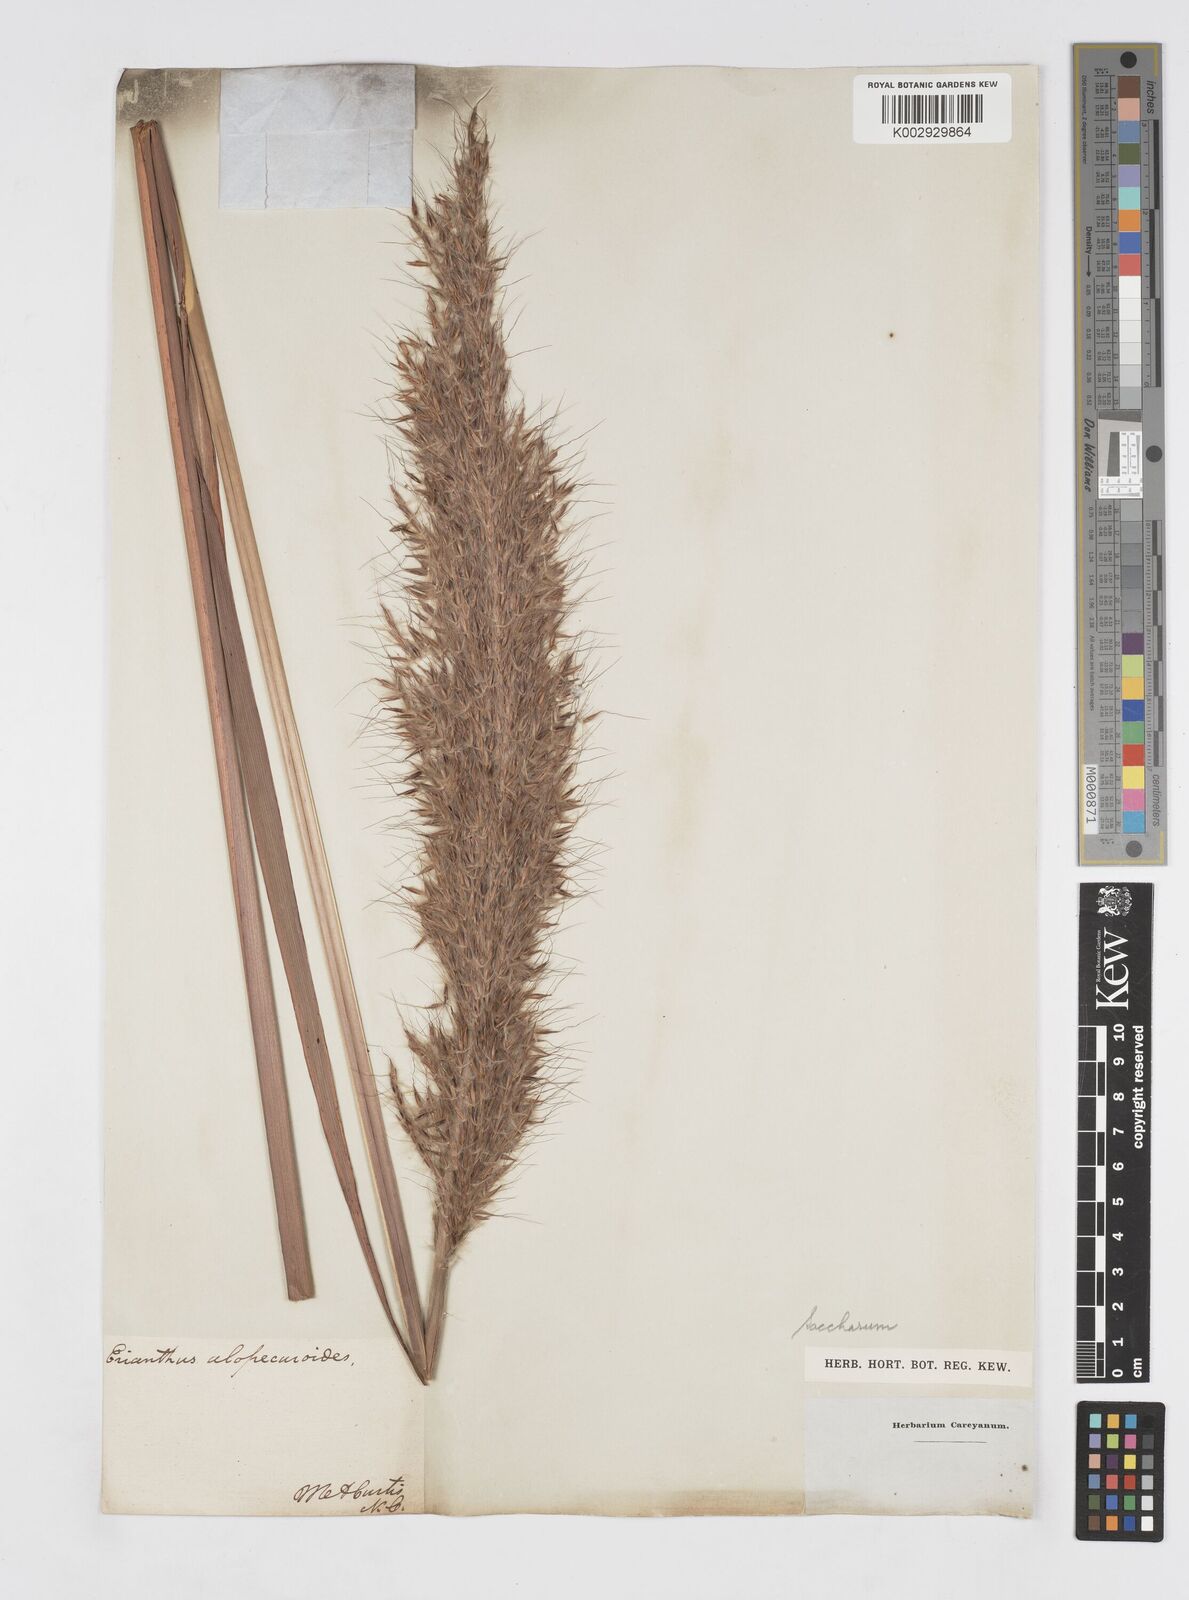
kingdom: Plantae
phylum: Tracheophyta
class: Liliopsida
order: Poales
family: Poaceae
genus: Erianthus
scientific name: Erianthus contortus
